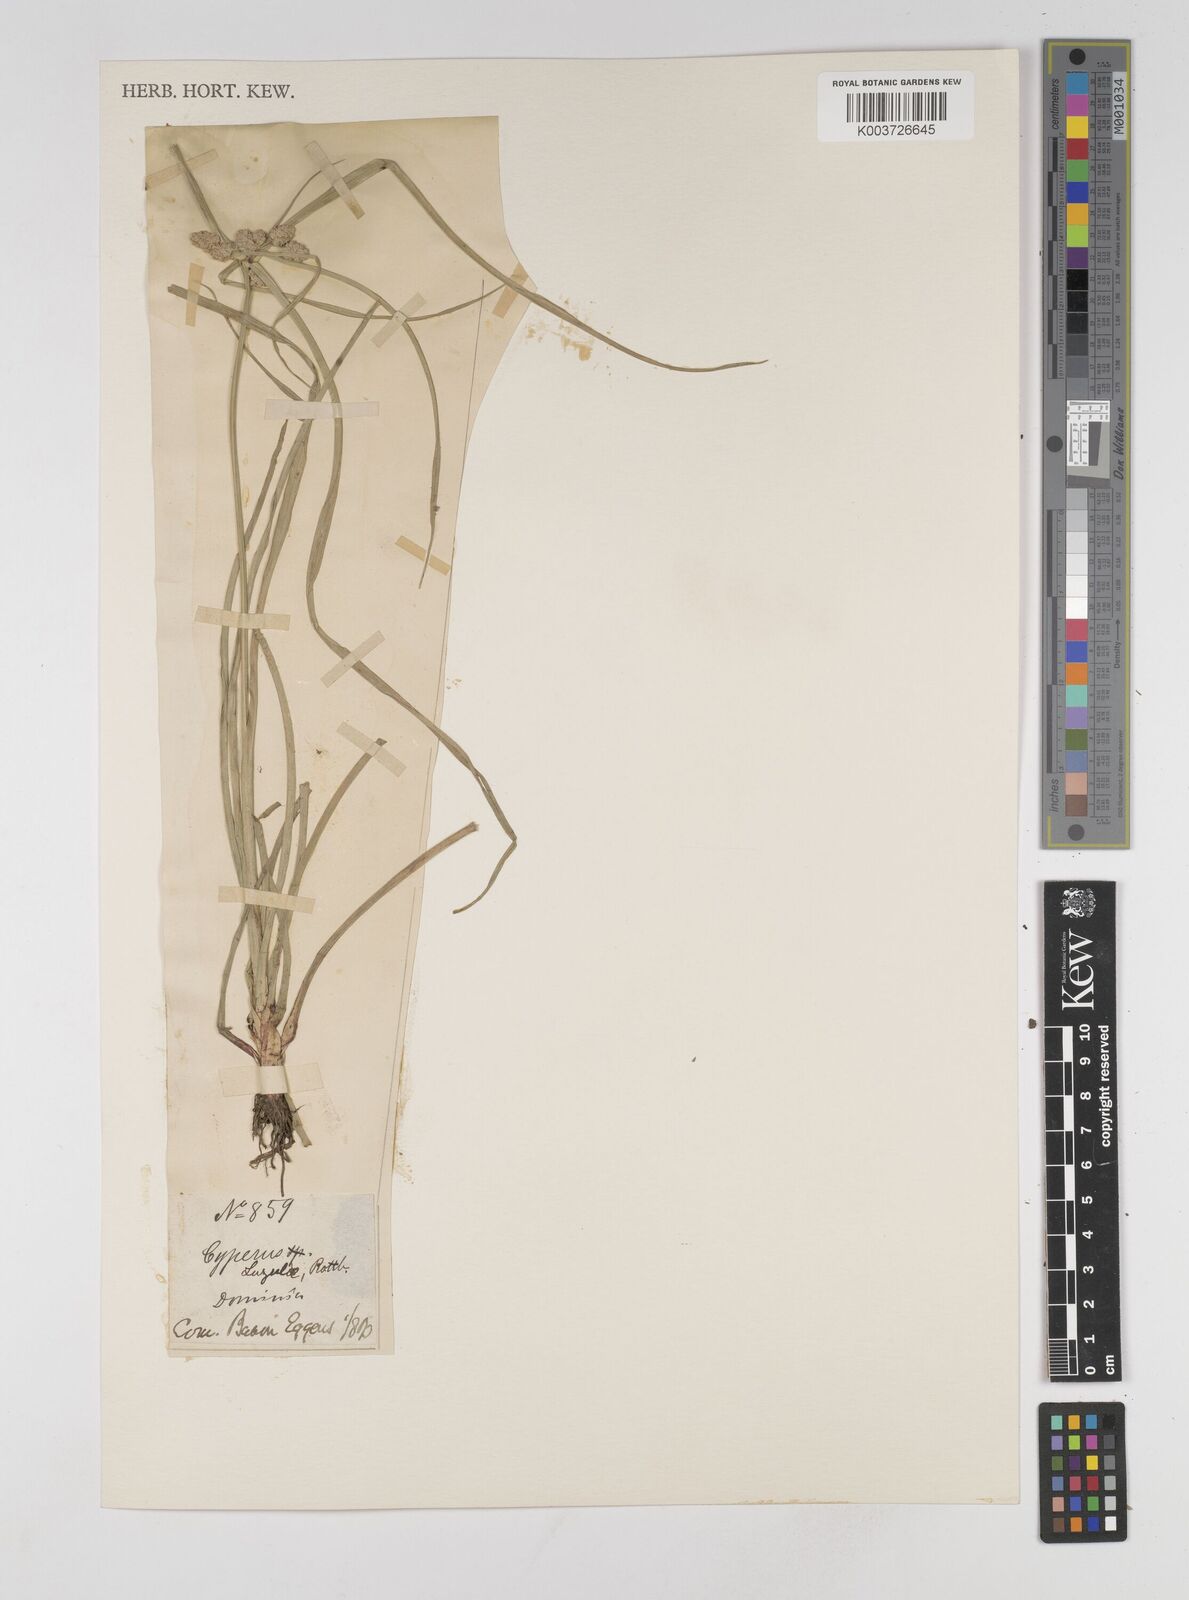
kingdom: Plantae
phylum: Tracheophyta
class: Liliopsida
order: Poales
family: Cyperaceae
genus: Cyperus
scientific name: Cyperus luzulae
